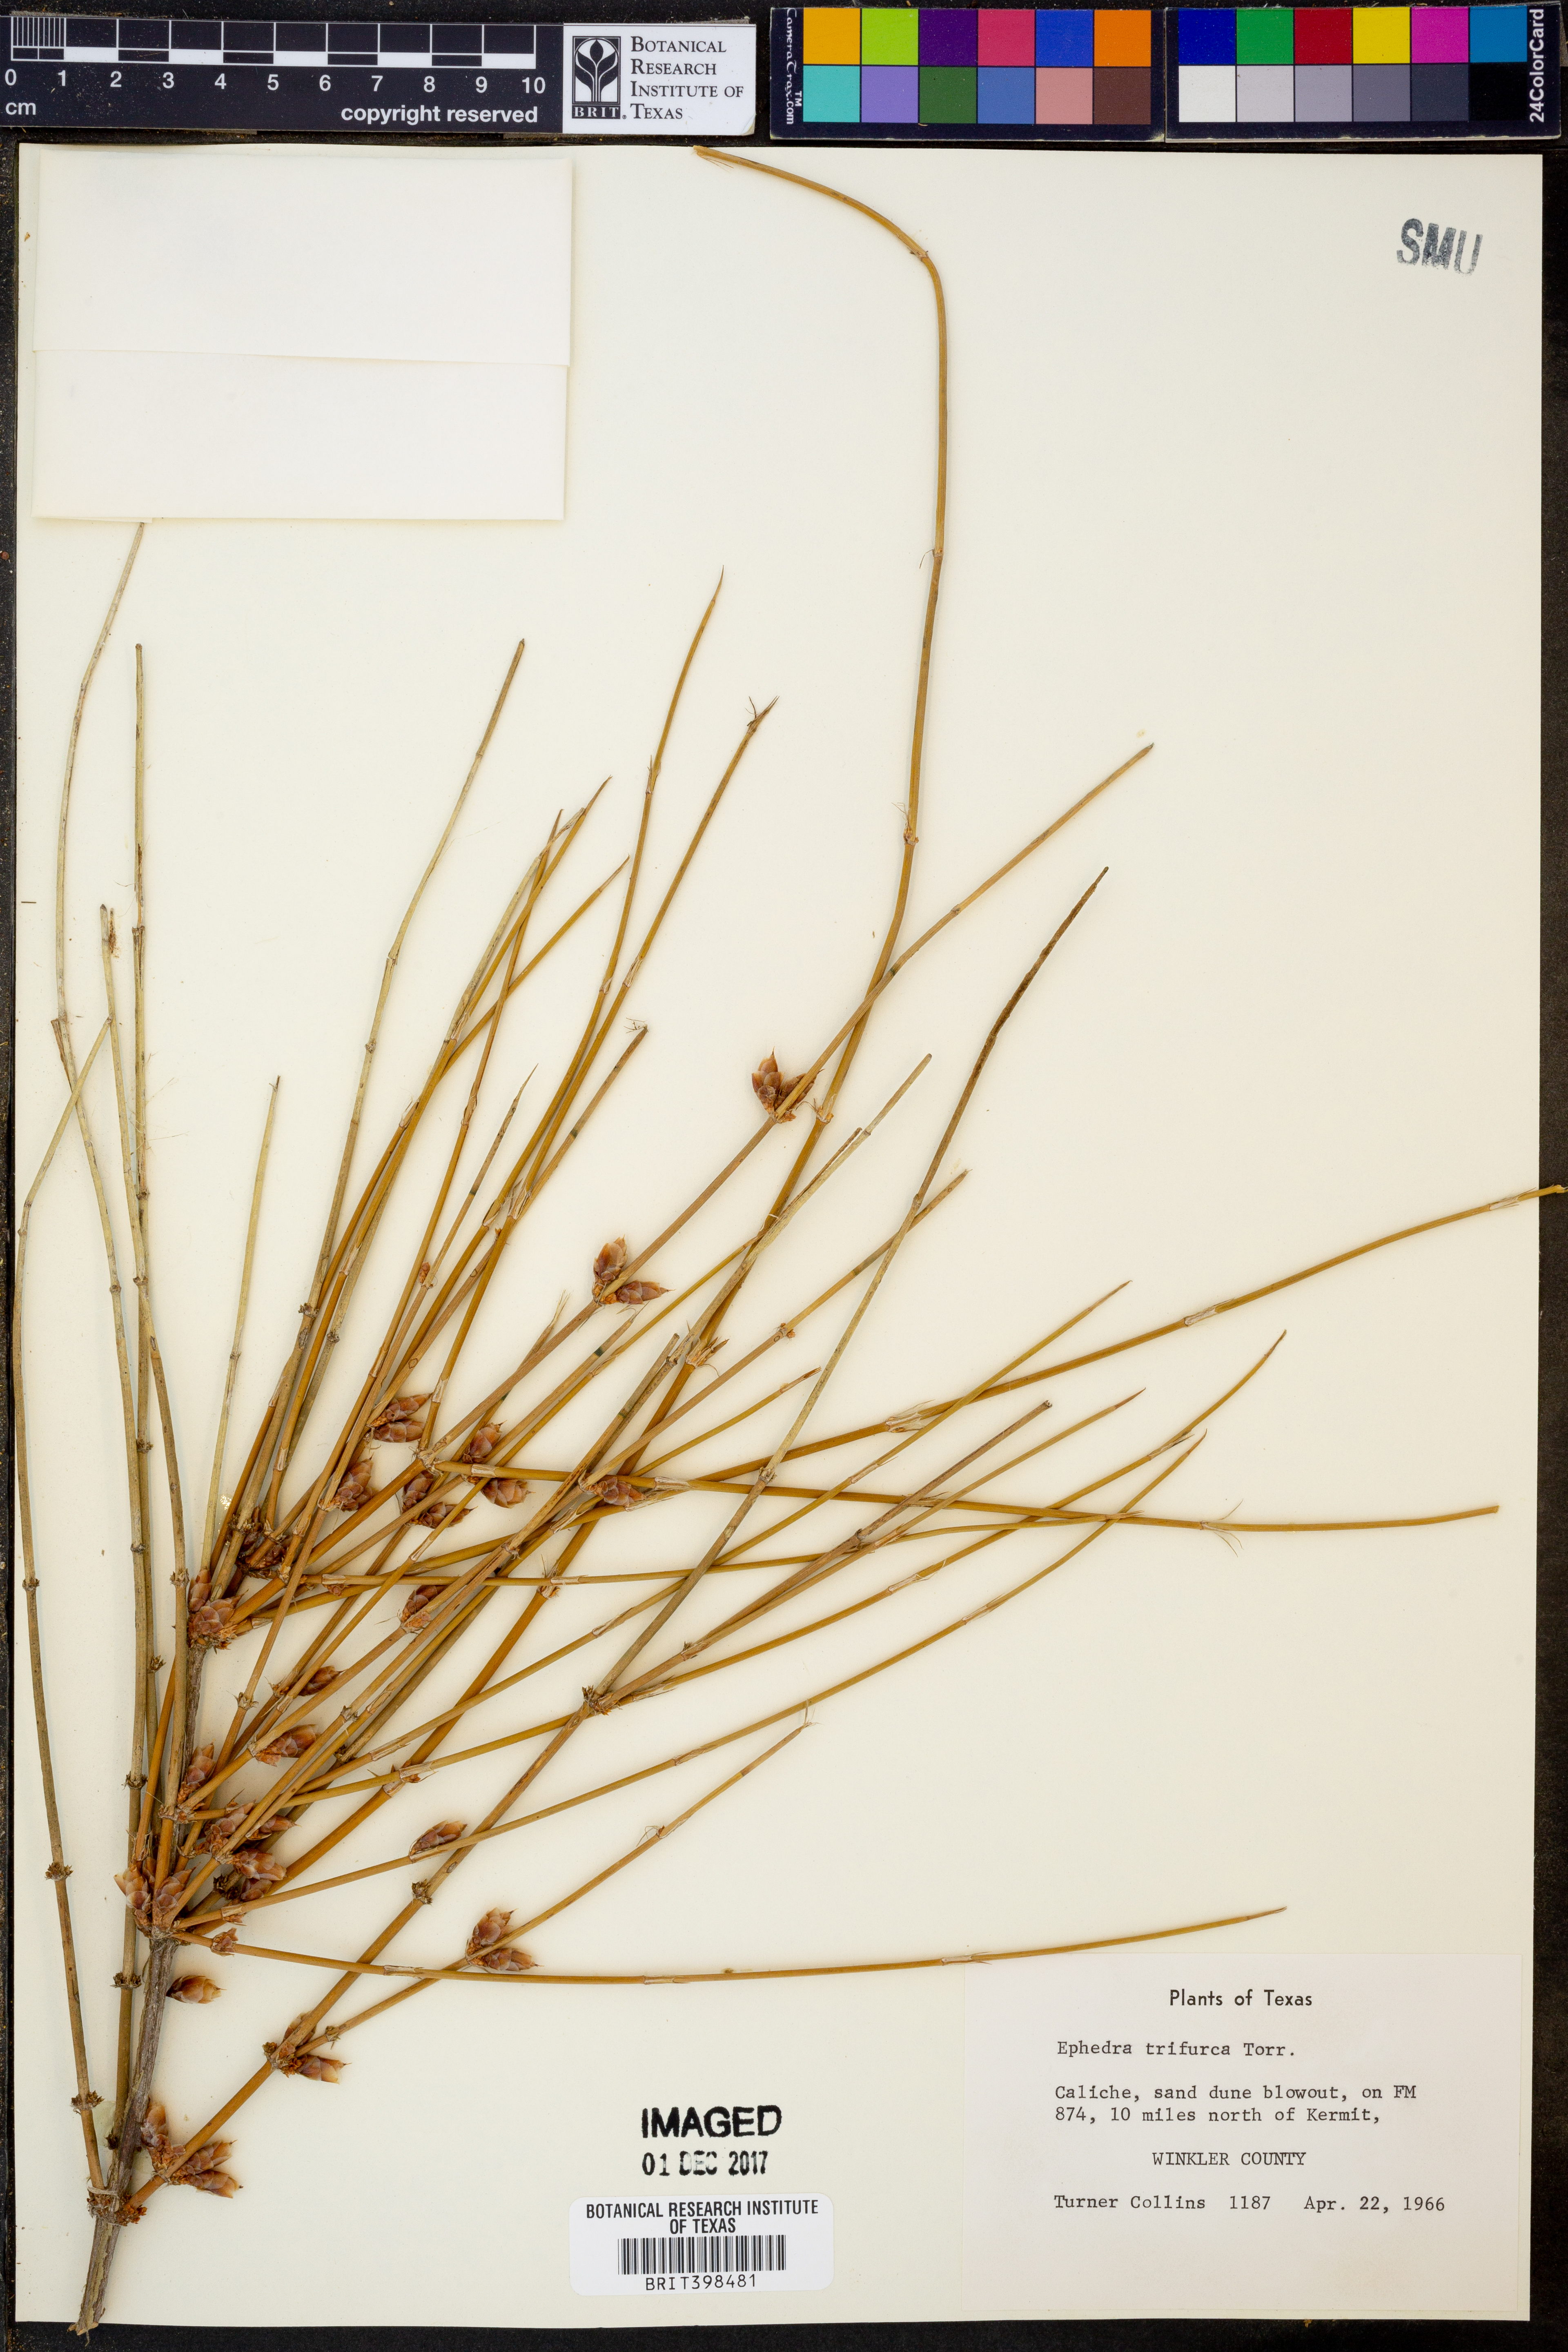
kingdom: Plantae
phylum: Tracheophyta
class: Gnetopsida
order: Ephedrales
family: Ephedraceae
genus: Ephedra
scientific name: Ephedra trifurca
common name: Mexican-tea
